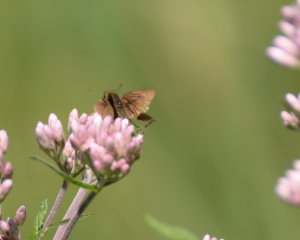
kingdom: Animalia
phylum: Arthropoda
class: Insecta
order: Lepidoptera
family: Hesperiidae
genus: Euphyes
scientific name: Euphyes vestris
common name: Dun Skipper
